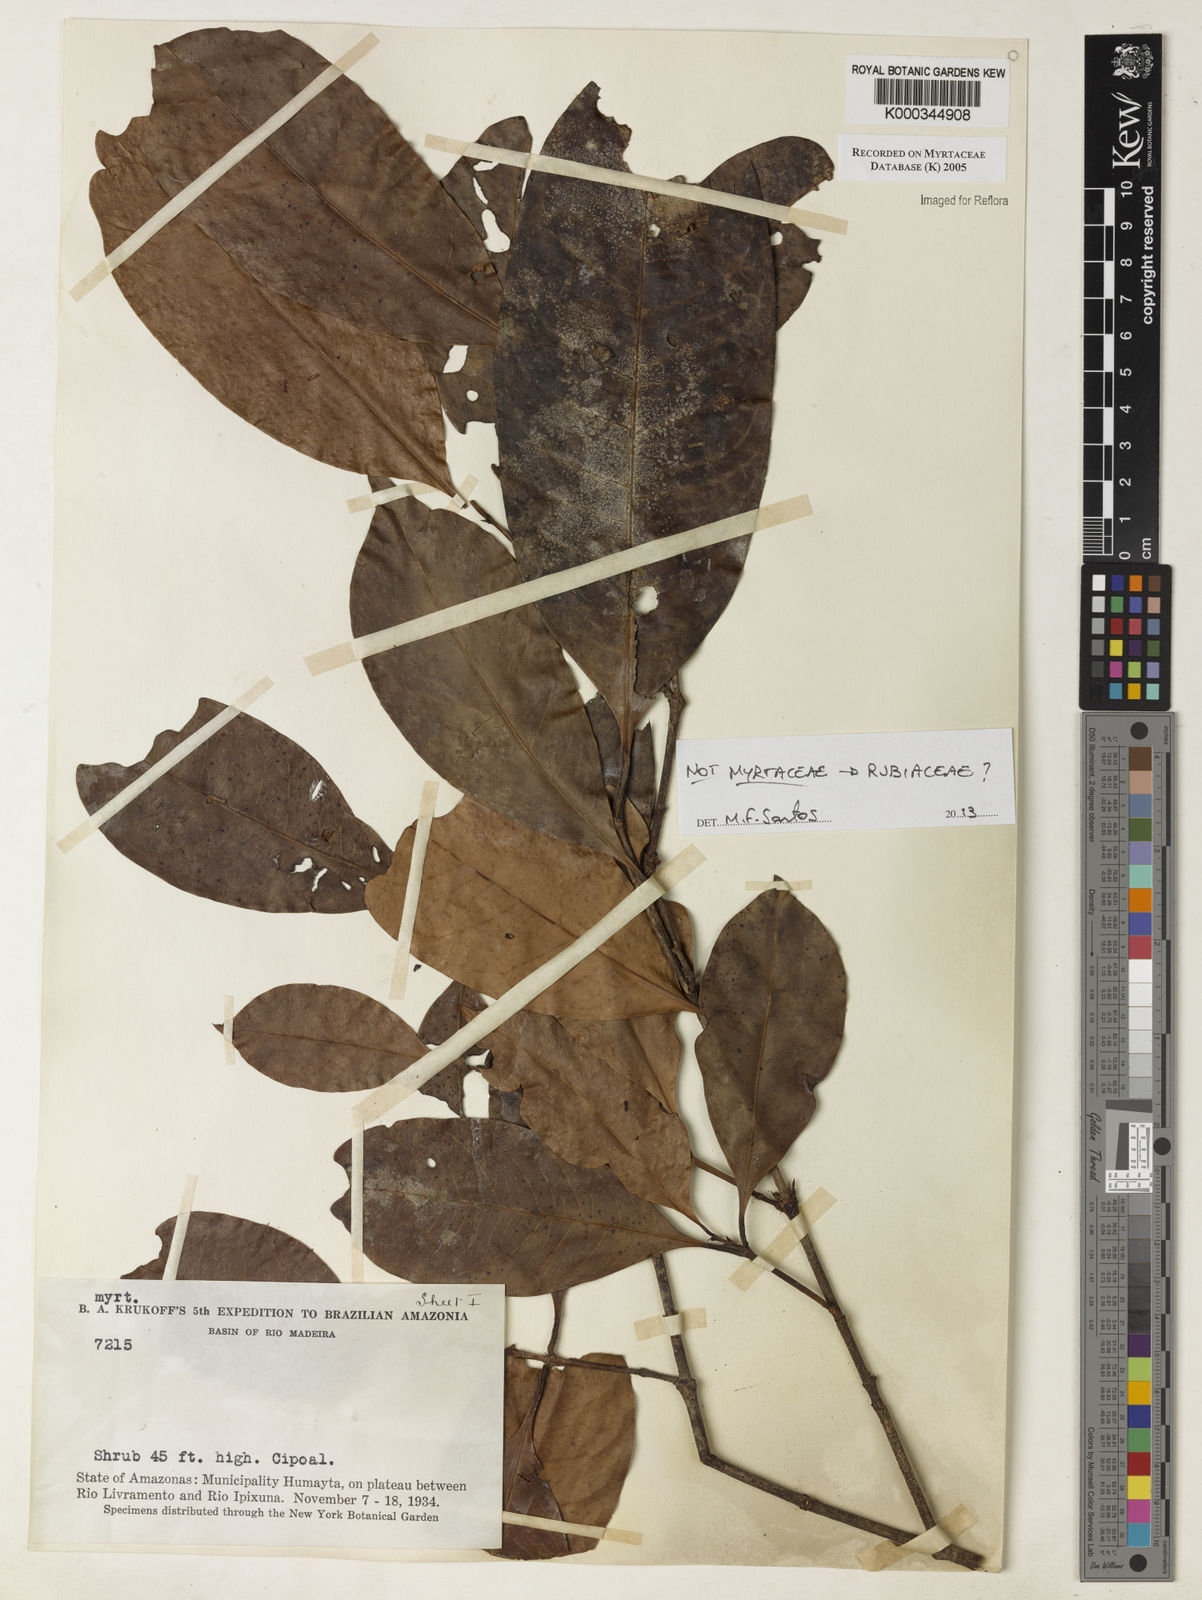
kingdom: Plantae
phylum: Tracheophyta
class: Magnoliopsida
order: Gentianales
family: Rubiaceae
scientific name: Rubiaceae
